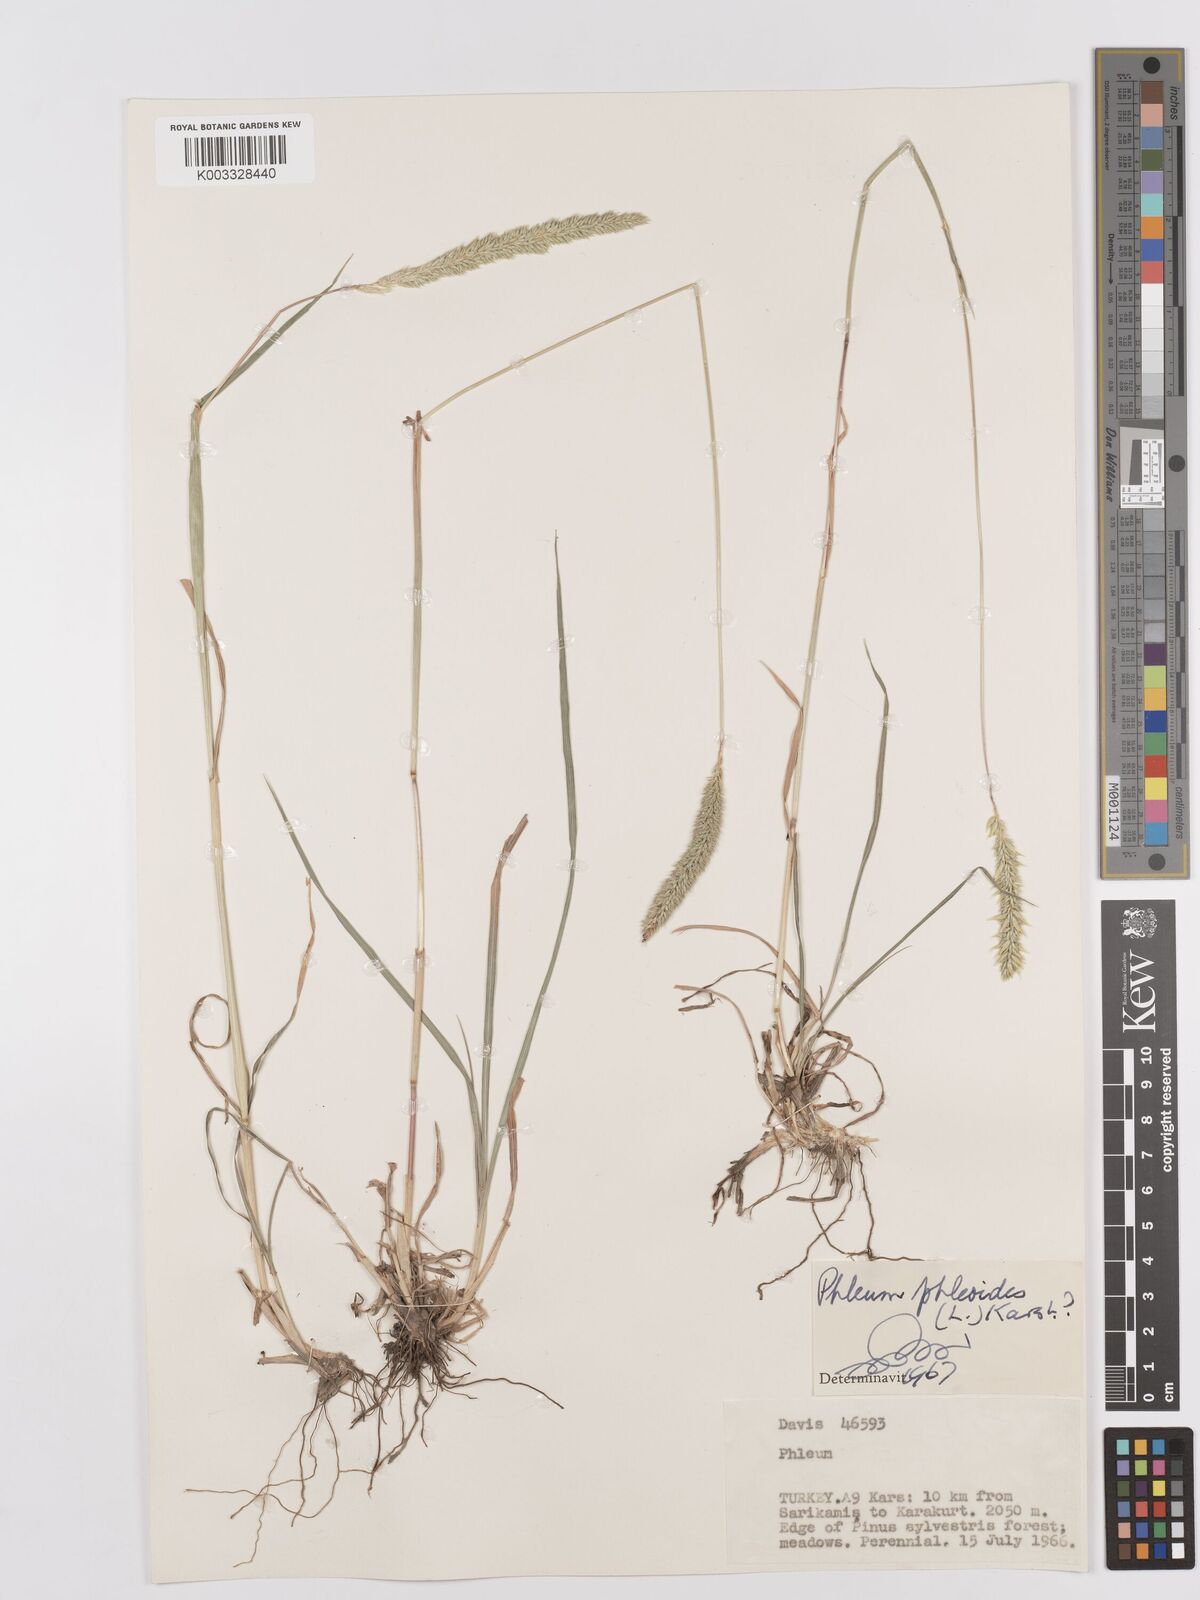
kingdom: Plantae
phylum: Tracheophyta
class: Liliopsida
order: Poales
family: Poaceae
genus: Phleum
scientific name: Phleum phleoides
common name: Purple-stem cat's-tail
